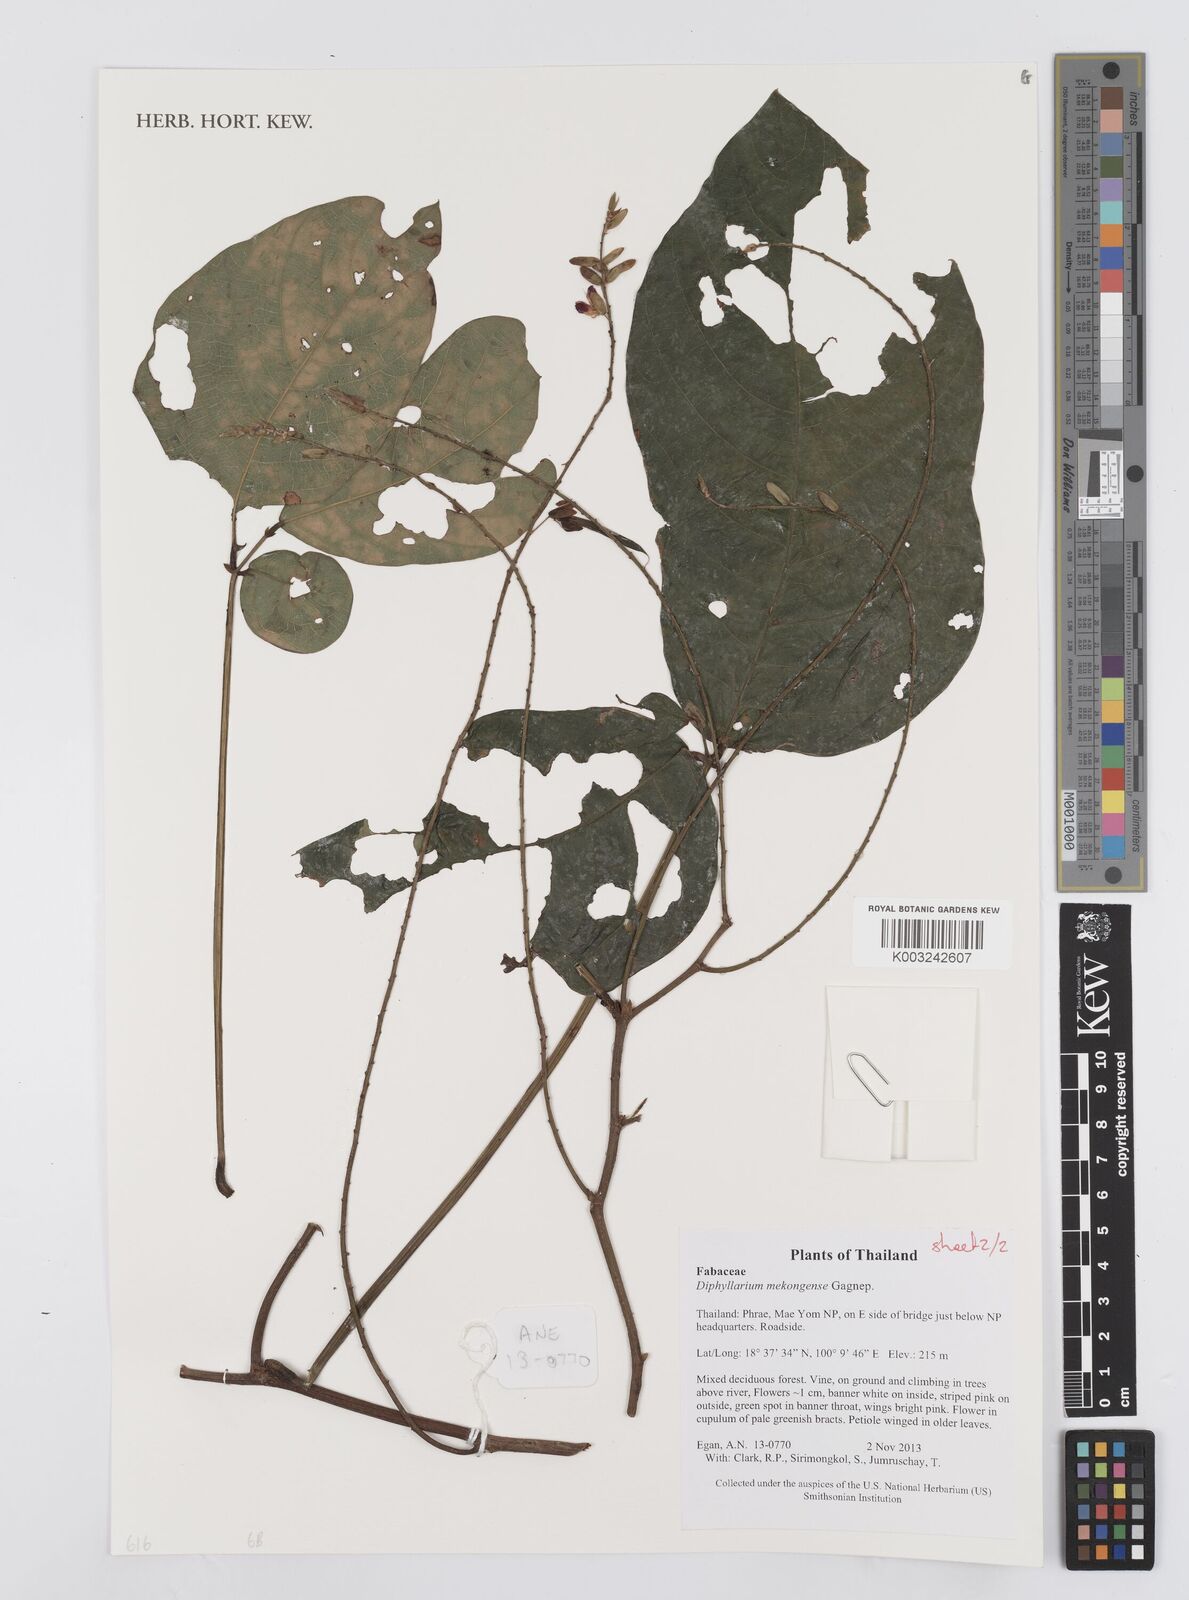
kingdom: Plantae
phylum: Tracheophyta
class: Magnoliopsida
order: Fabales
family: Fabaceae
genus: Diphyllarium
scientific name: Diphyllarium mekongense
